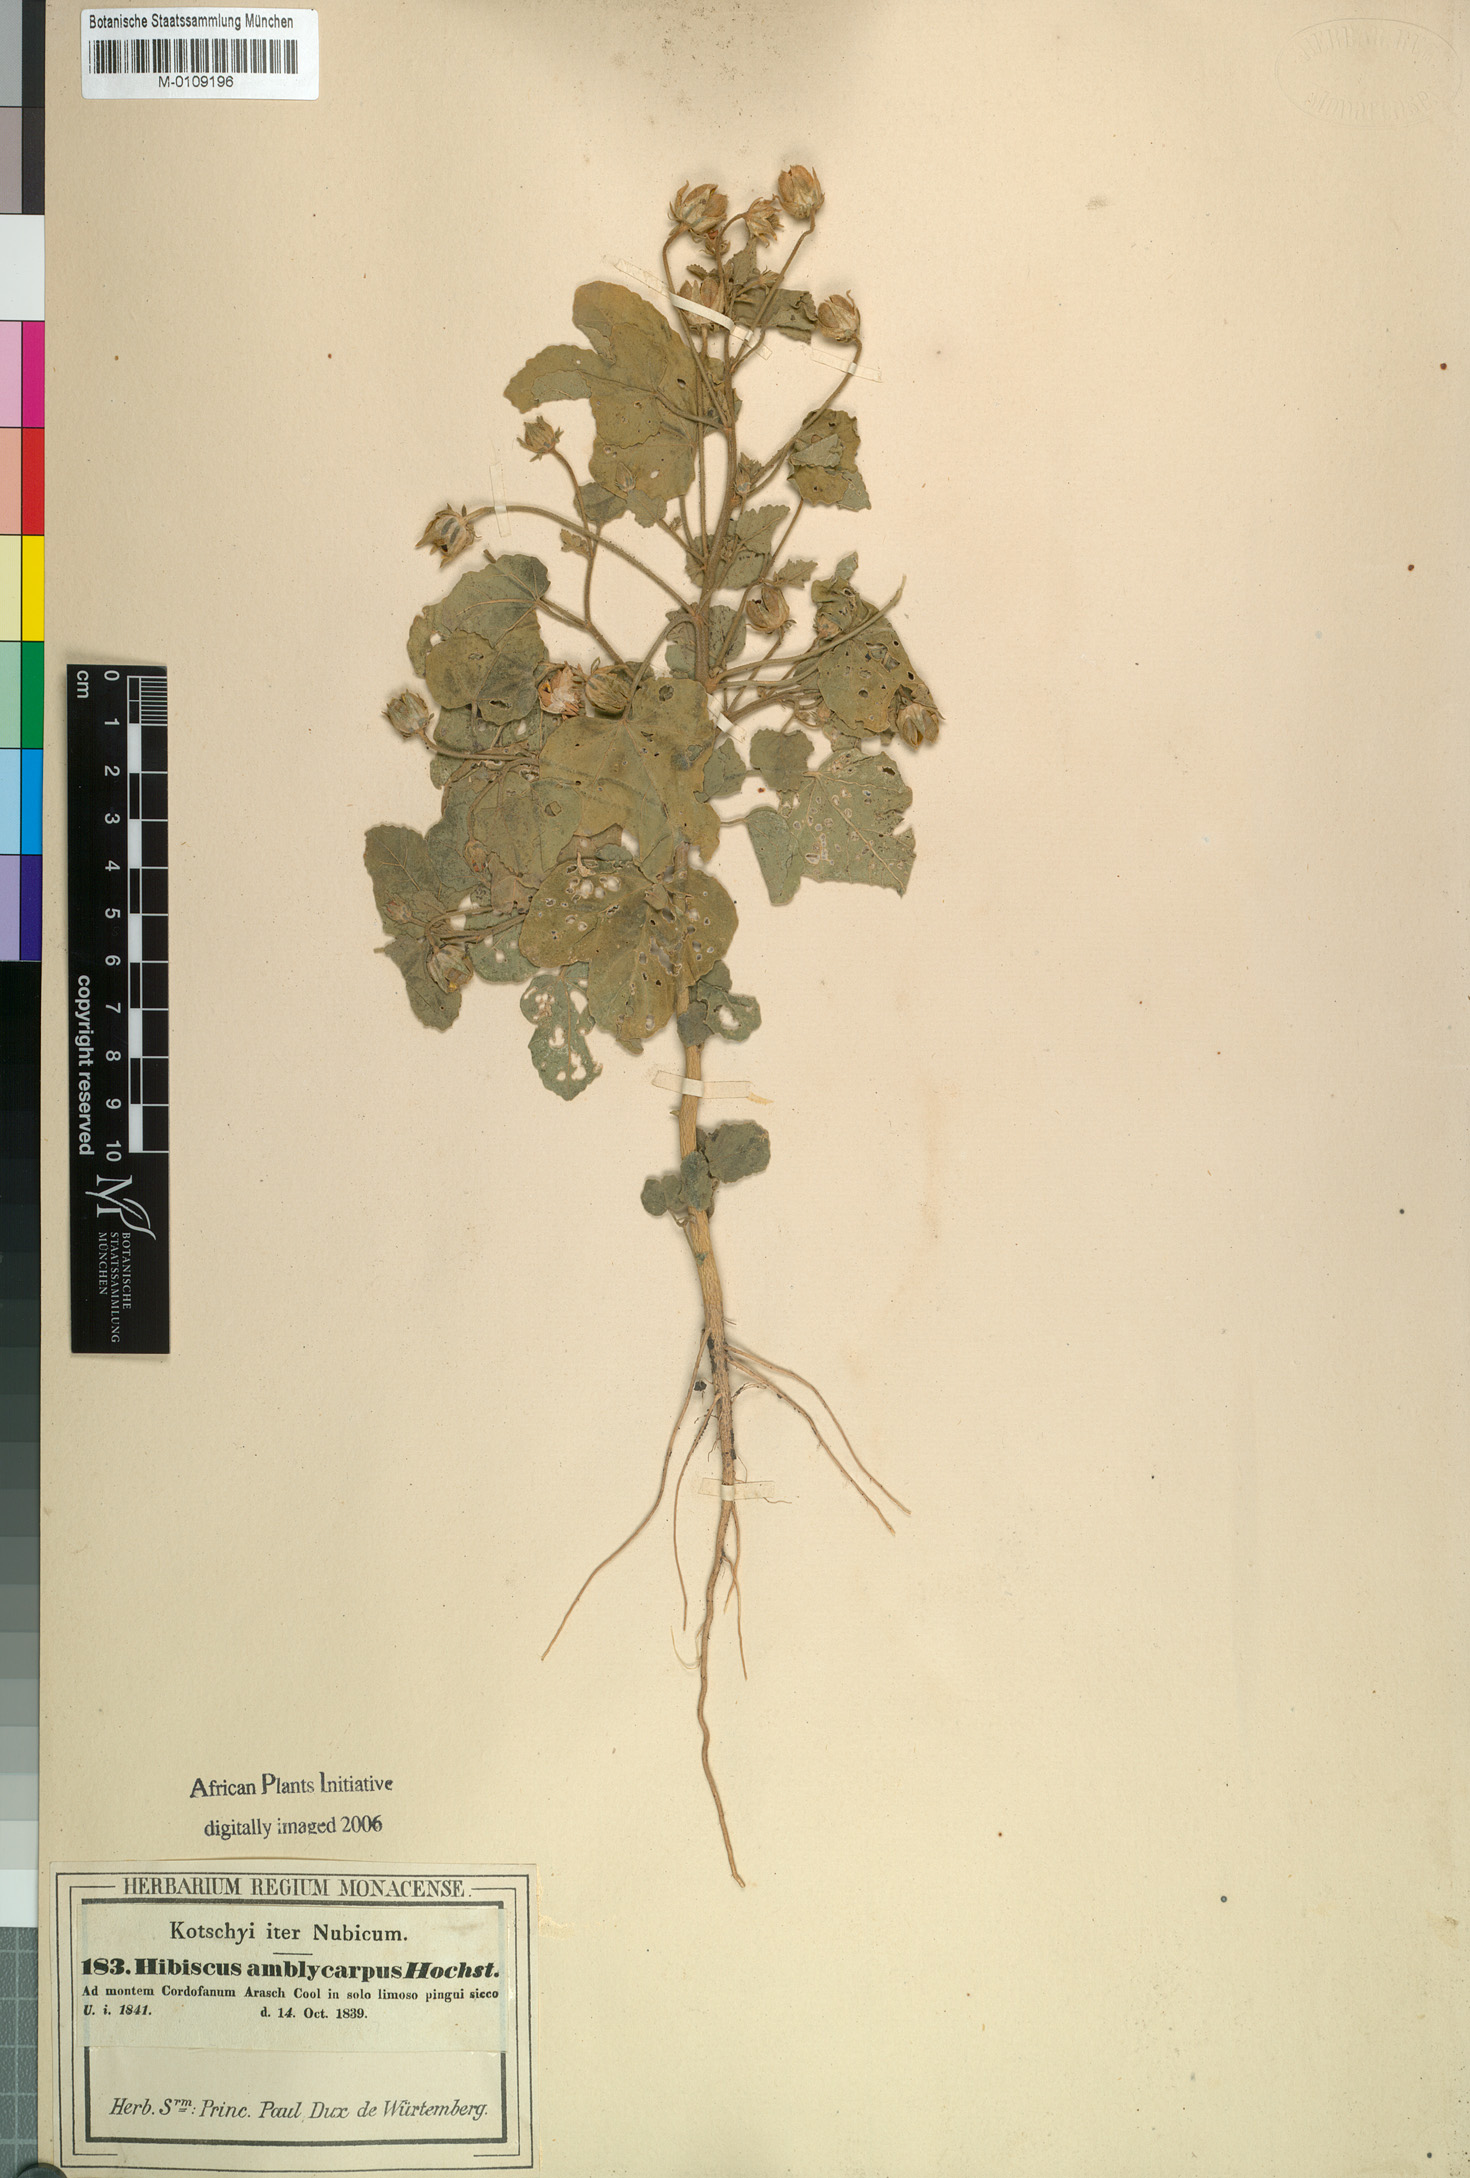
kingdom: Plantae
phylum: Tracheophyta
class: Magnoliopsida
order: Malvales
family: Malvaceae
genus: Hibiscus
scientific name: Hibiscus obtusilobus
